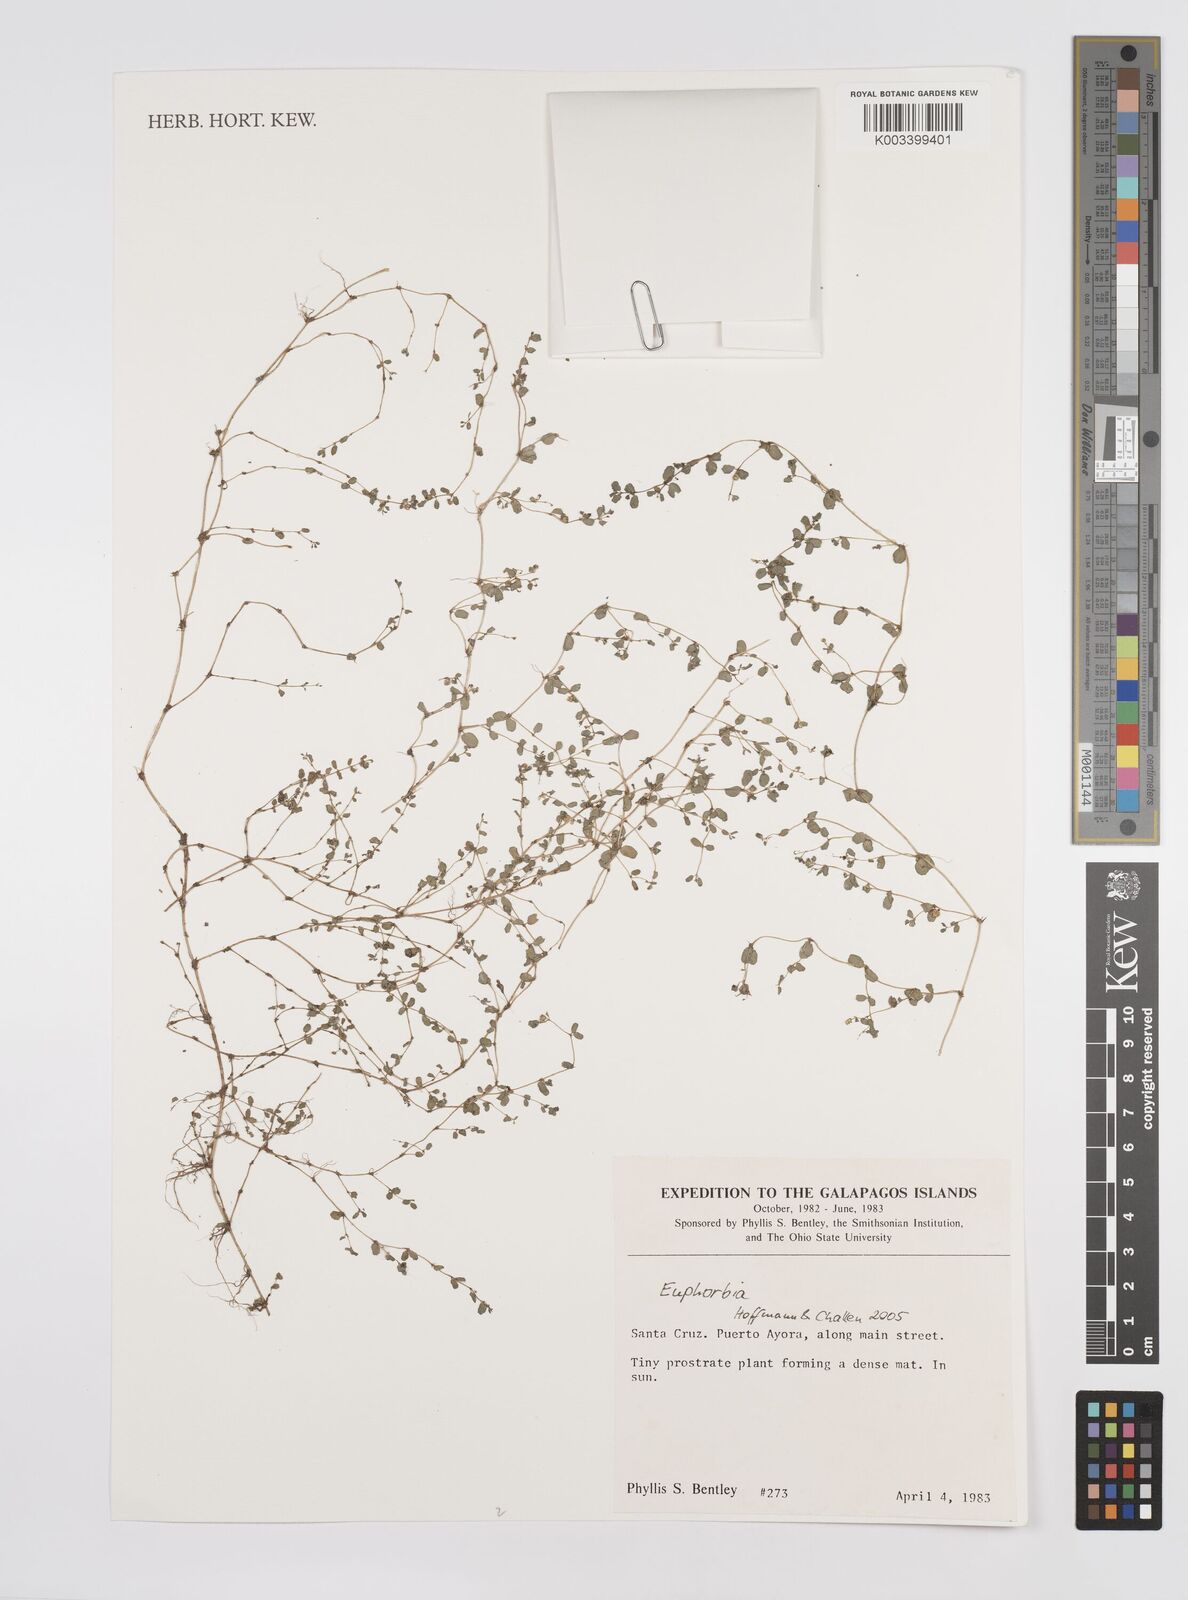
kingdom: Plantae
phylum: Tracheophyta
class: Magnoliopsida
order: Malpighiales
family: Euphorbiaceae
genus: Euphorbia
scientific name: Euphorbia
